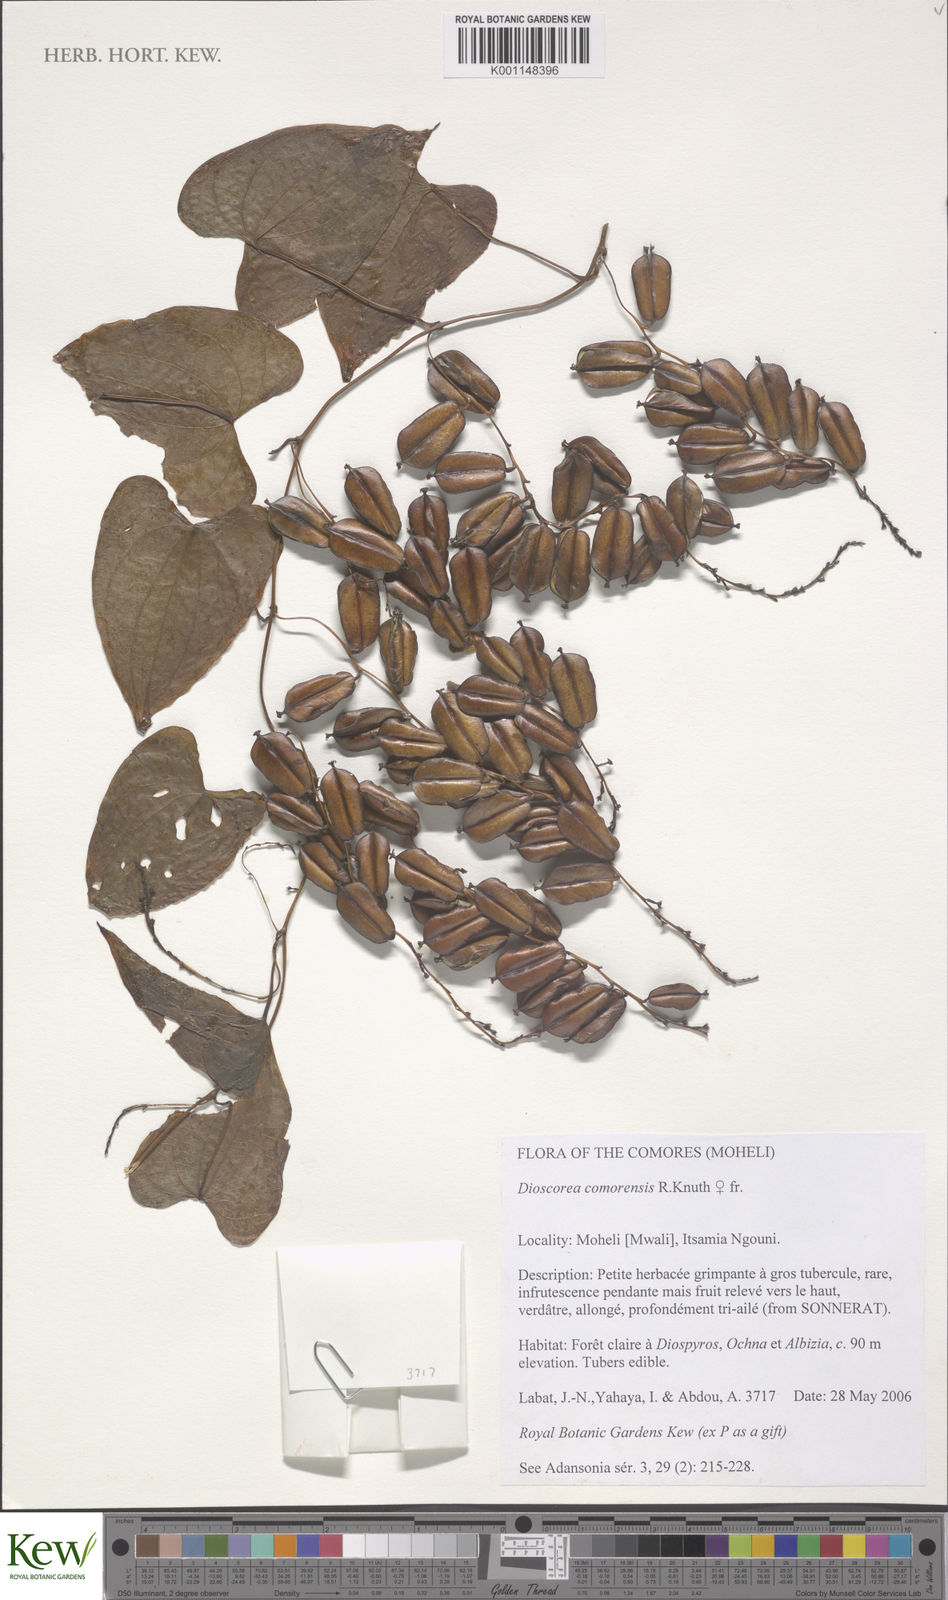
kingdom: Plantae
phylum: Tracheophyta
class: Liliopsida
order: Dioscoreales
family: Dioscoreaceae
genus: Dioscorea
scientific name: Dioscorea comorensis
